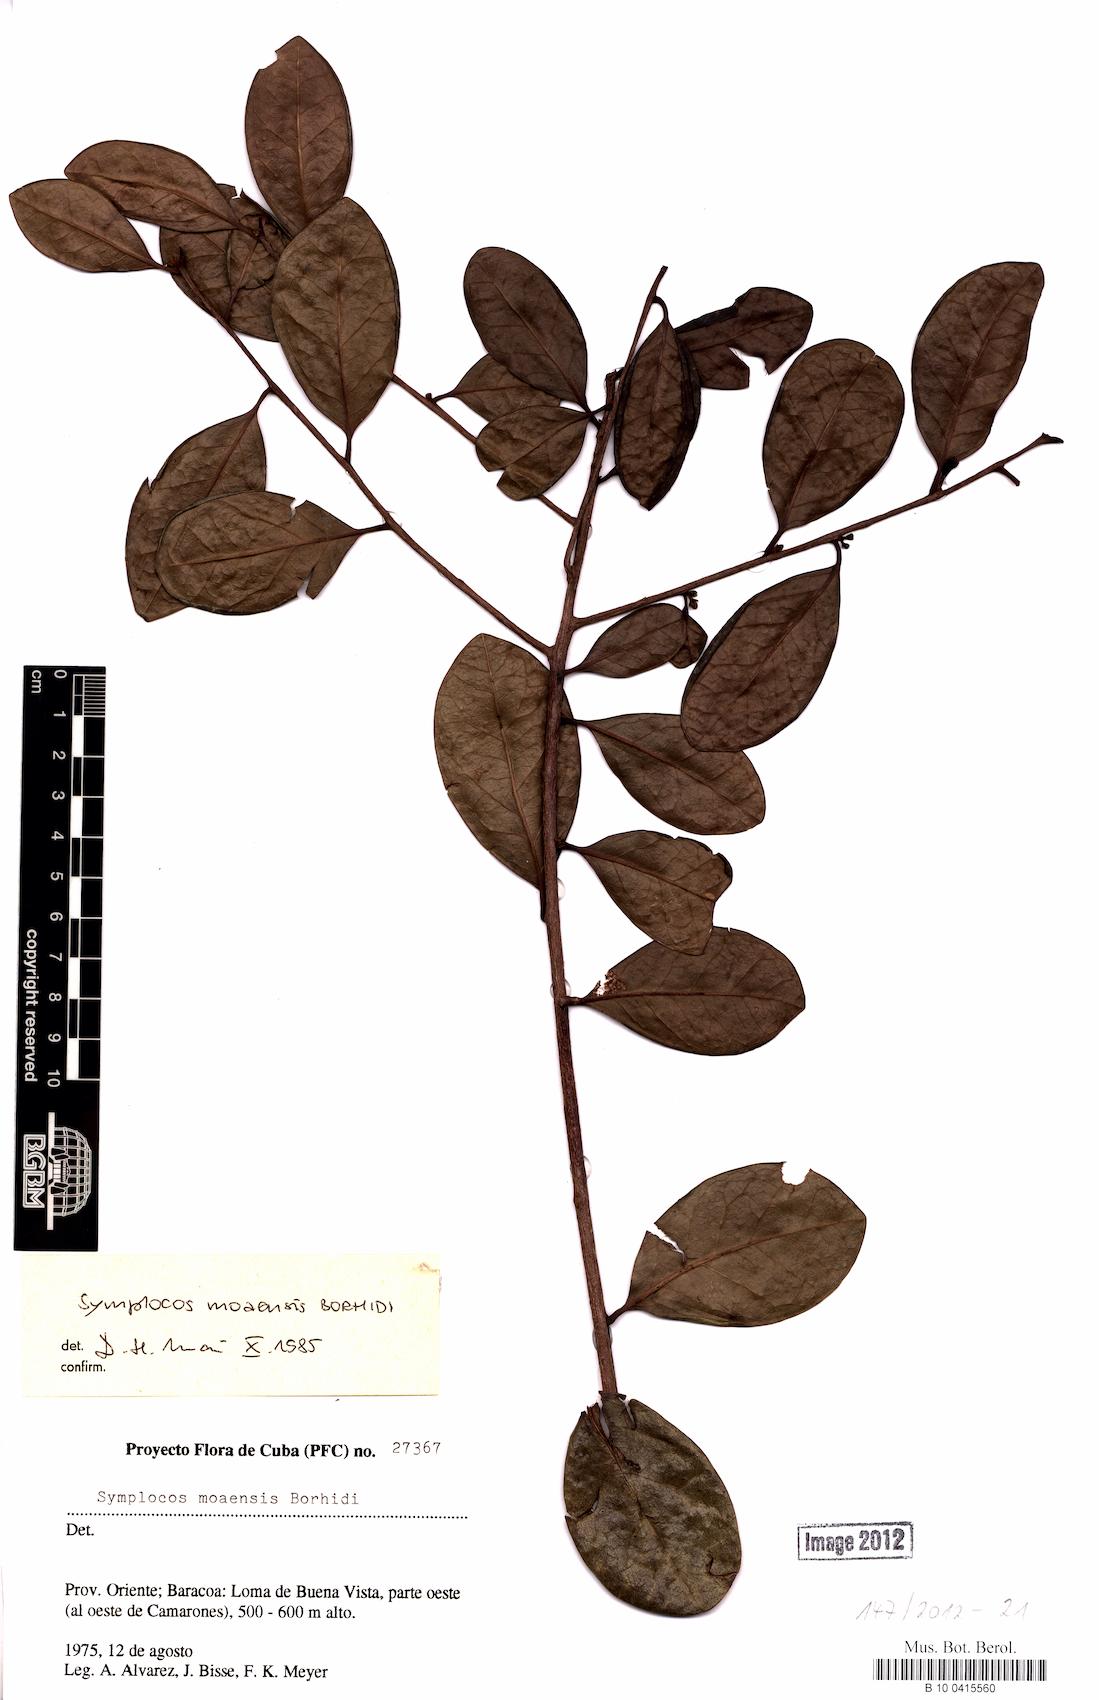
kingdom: Plantae
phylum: Tracheophyta
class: Magnoliopsida
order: Ericales
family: Symplocaceae
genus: Symplocos
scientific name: Symplocos moaensis
